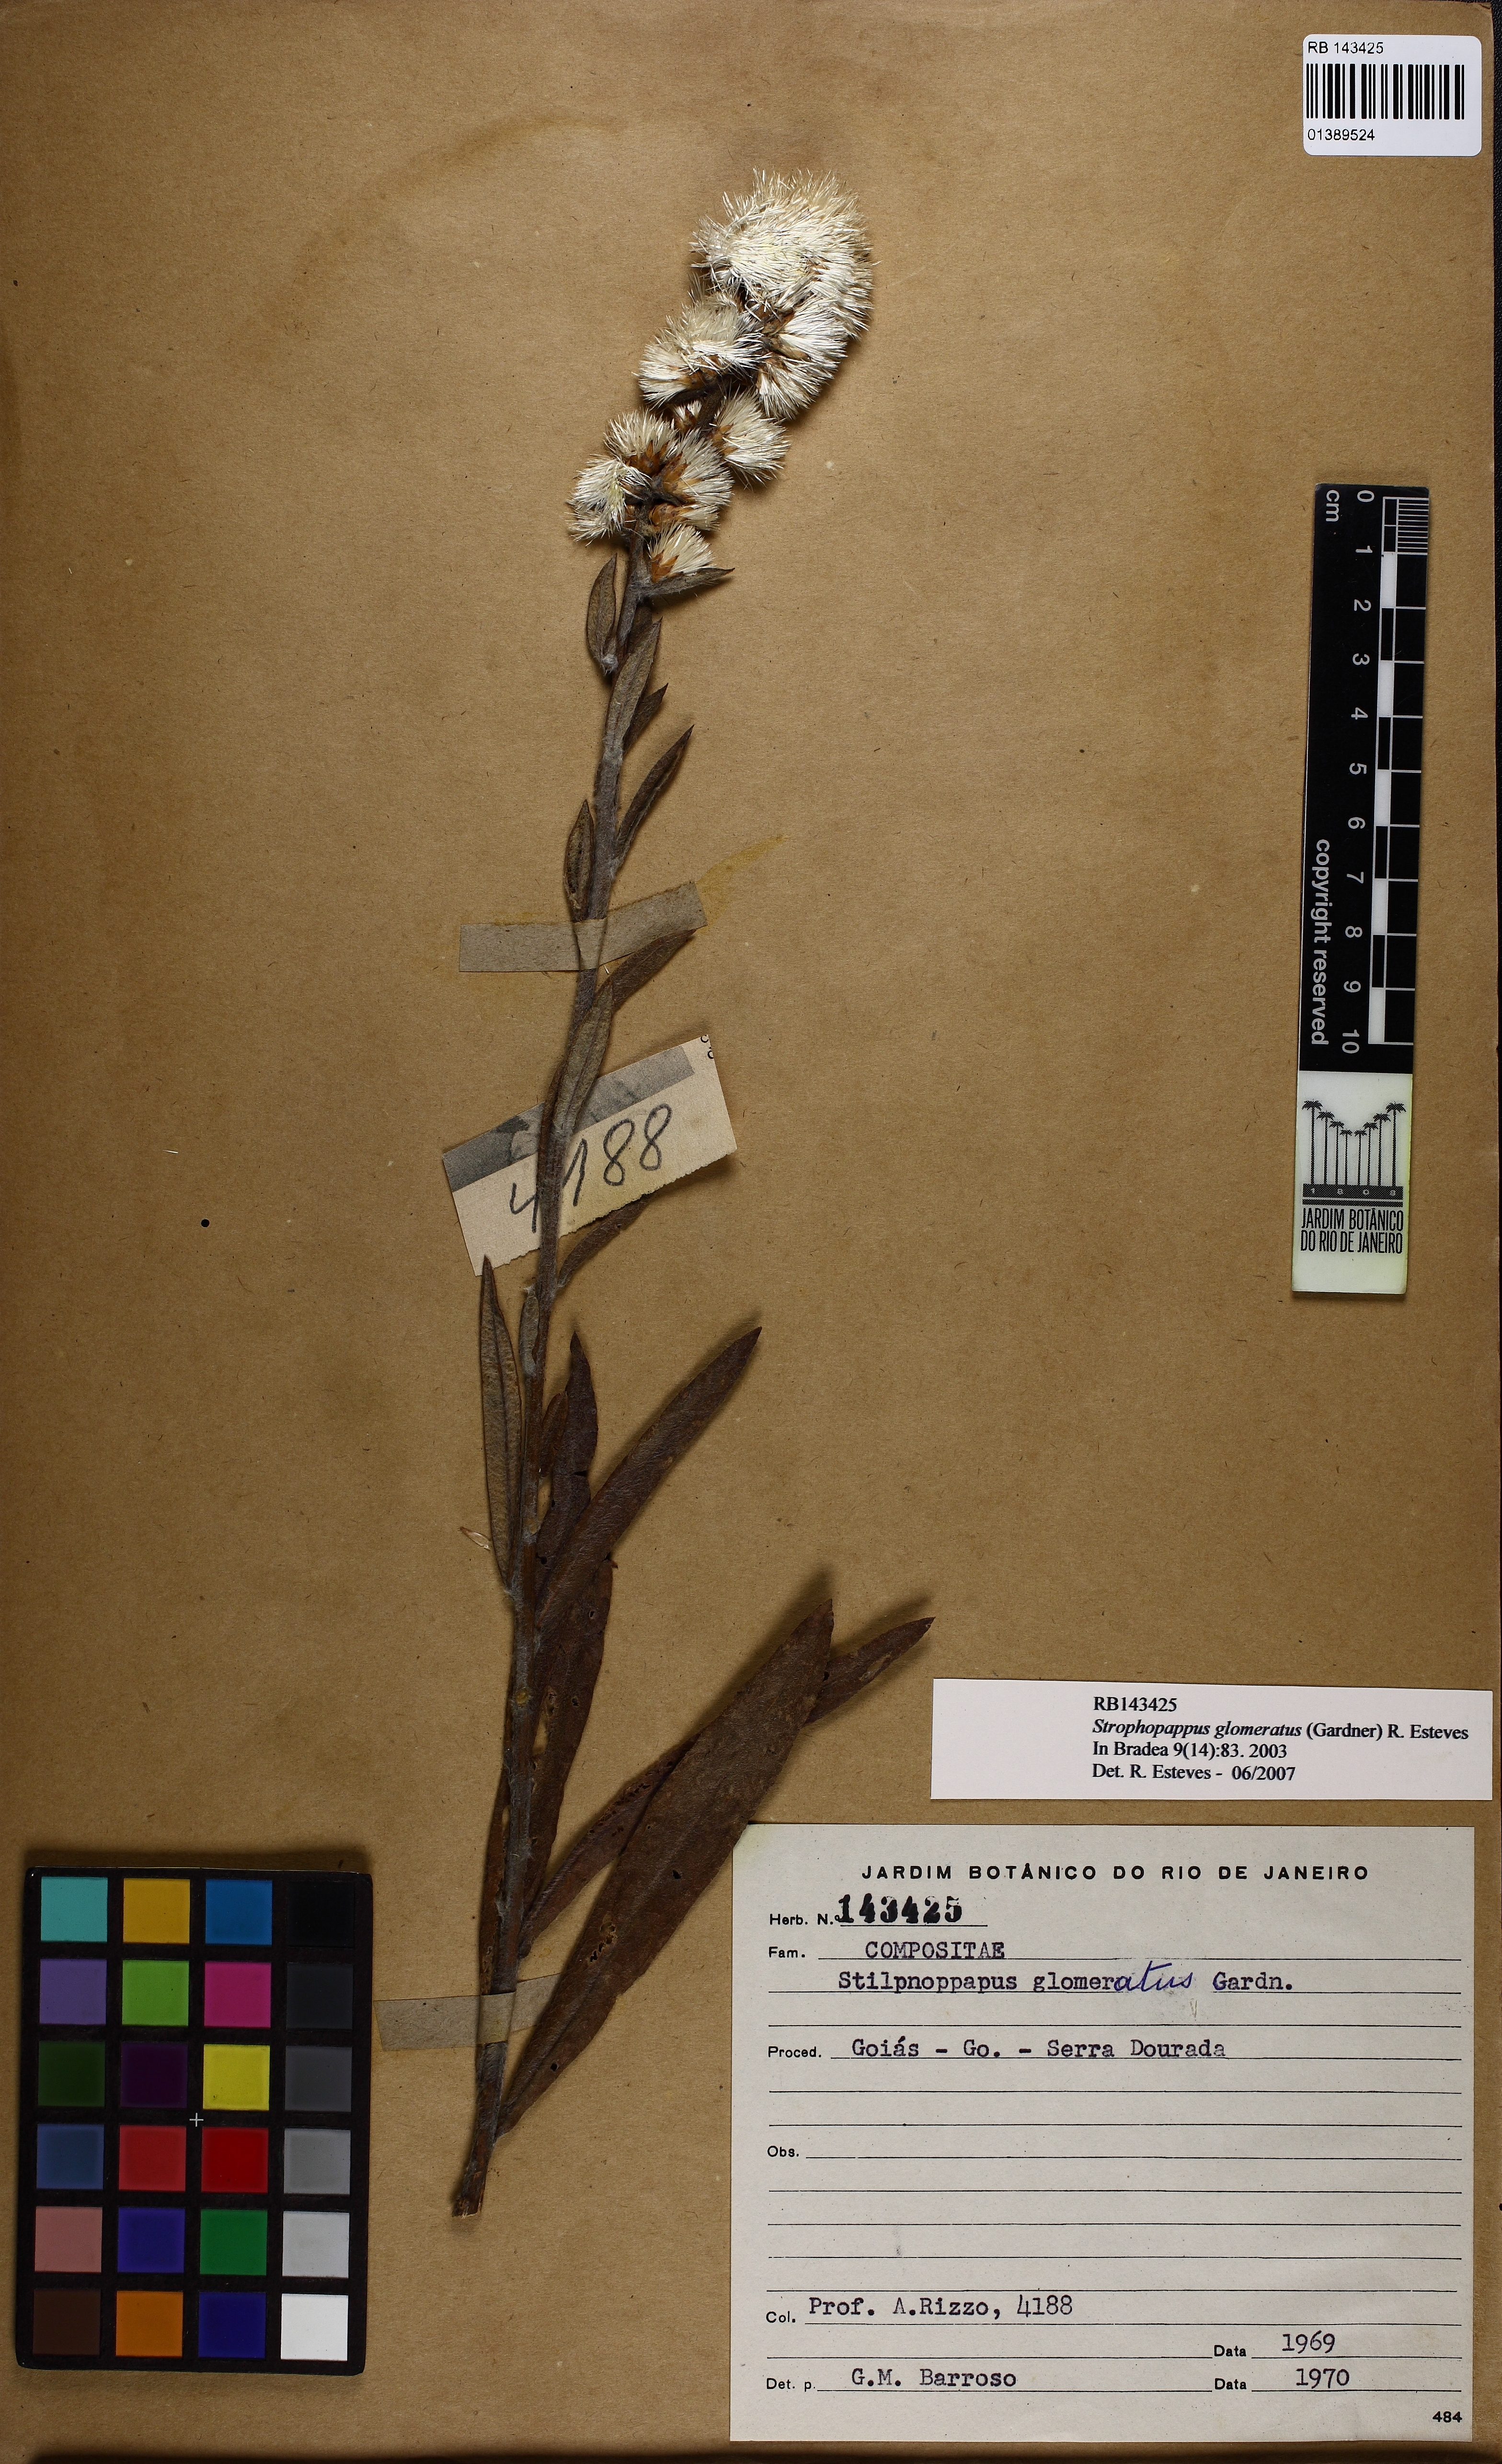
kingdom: Plantae
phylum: Tracheophyta
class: Magnoliopsida
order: Asterales
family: Asteraceae
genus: Stilpnopappus
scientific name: Stilpnopappus glomeratus
